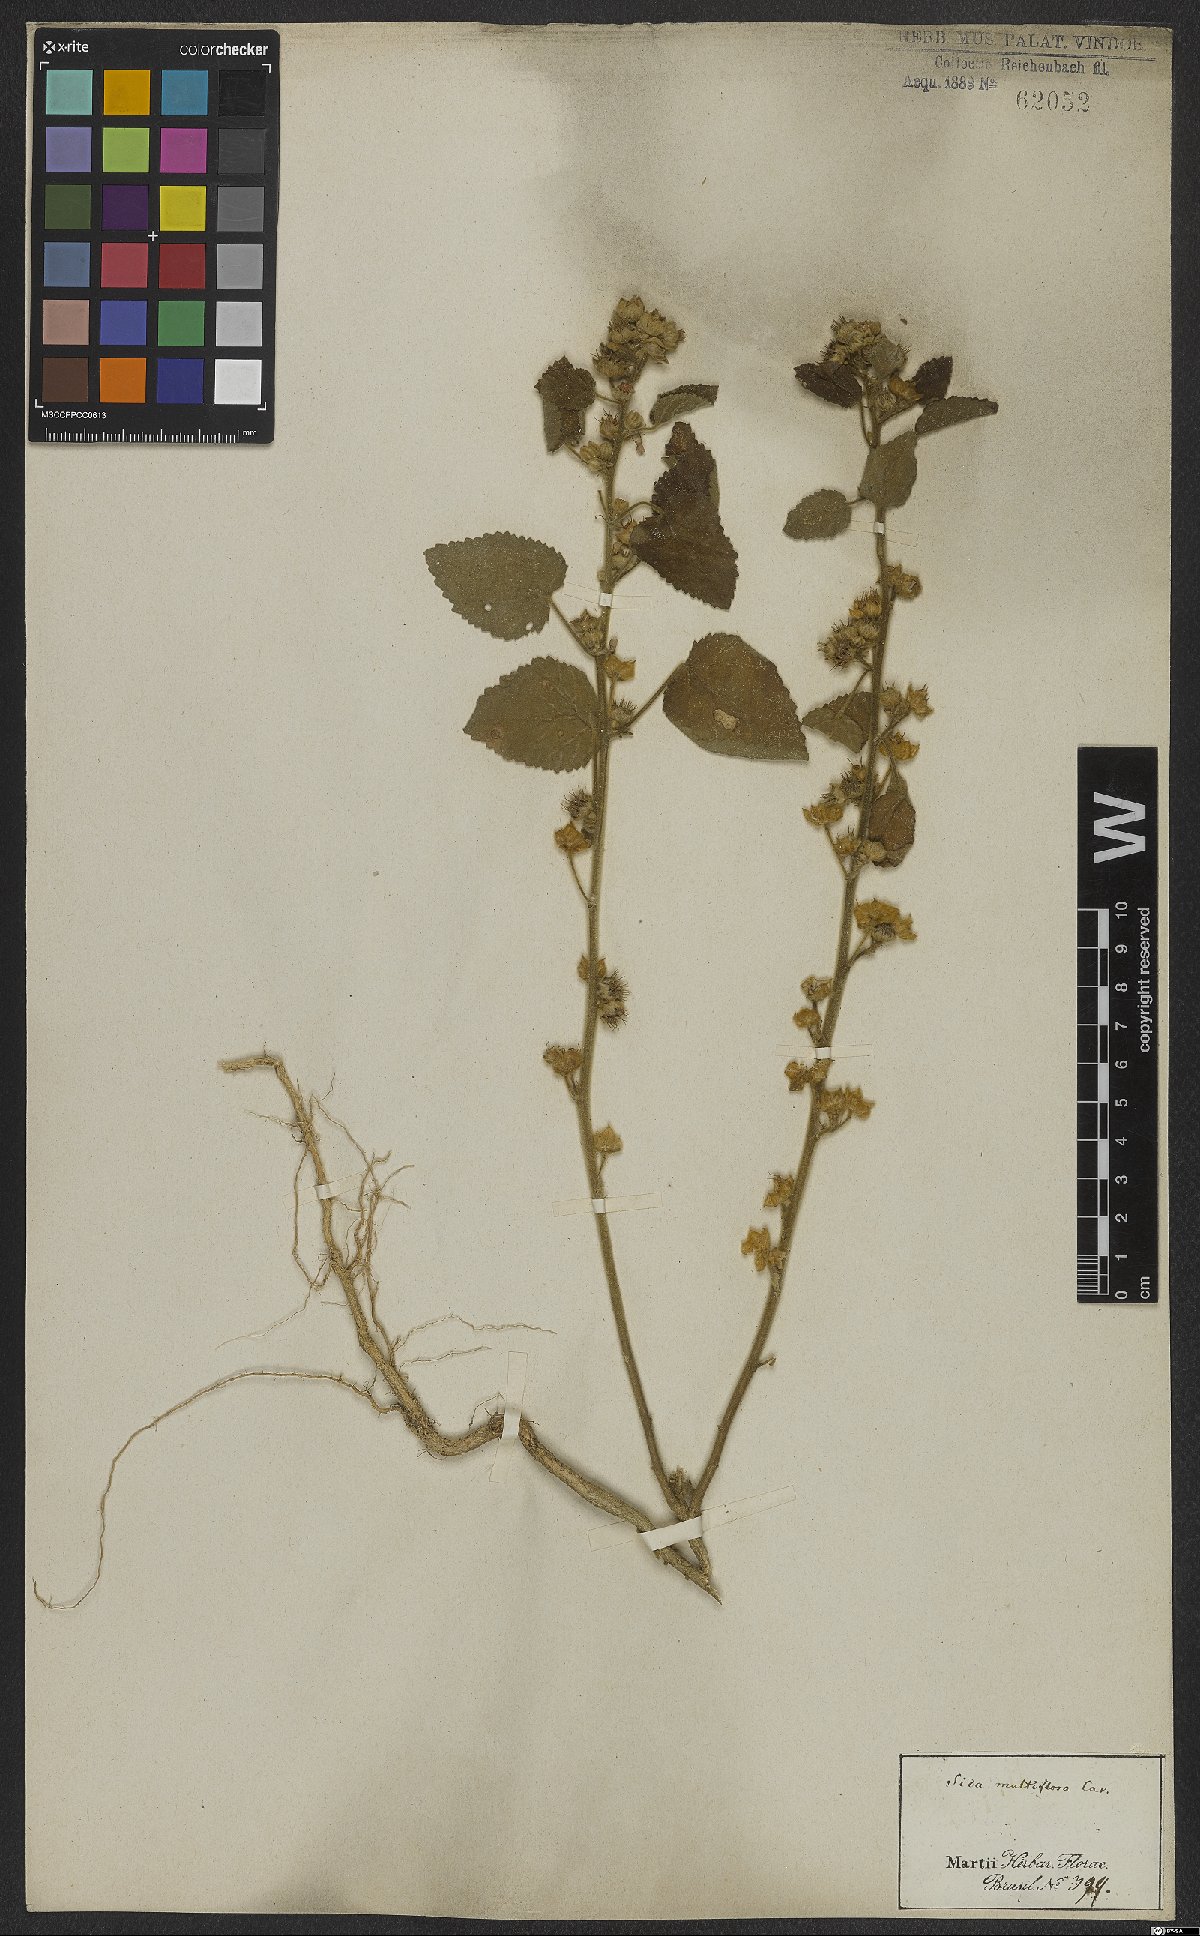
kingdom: Plantae
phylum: Tracheophyta
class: Magnoliopsida
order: Malvales
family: Malvaceae
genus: Sida
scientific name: Sida cordifolia
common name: Ilima
